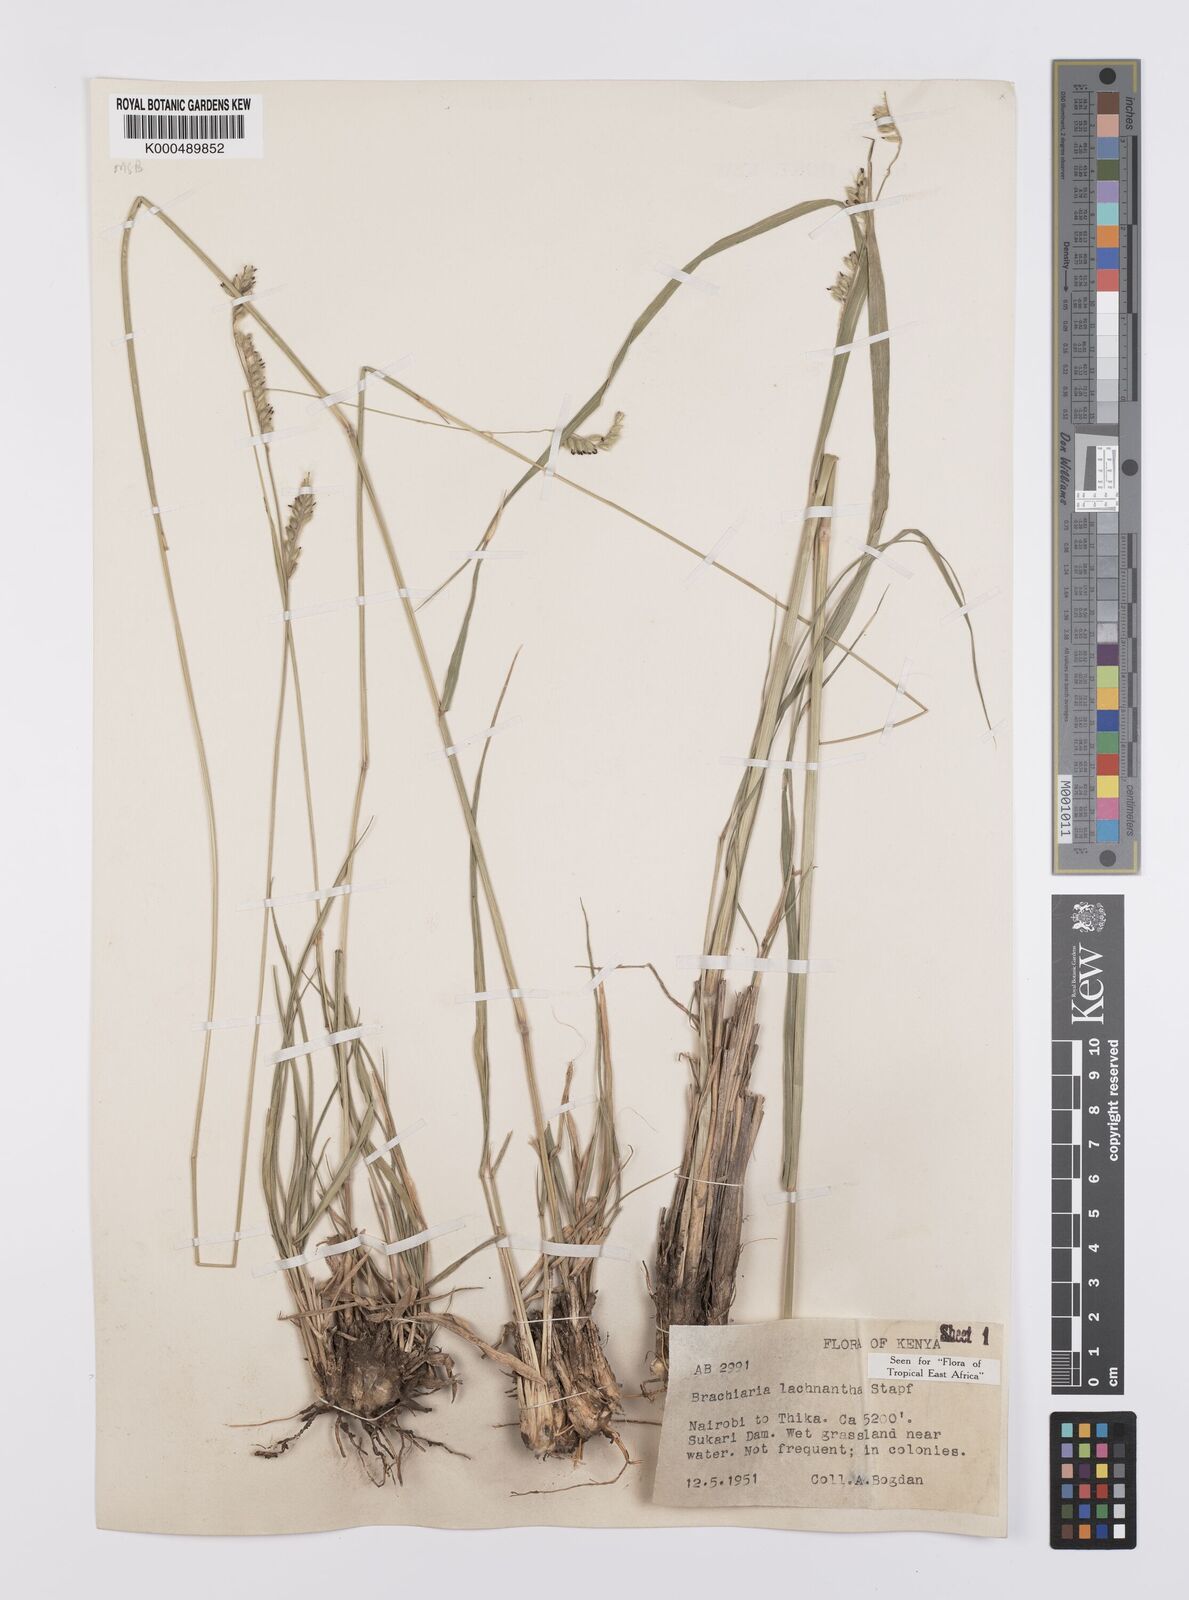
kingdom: Plantae
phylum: Tracheophyta
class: Liliopsida
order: Poales
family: Poaceae
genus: Urochloa
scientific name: Urochloa lachnantha
